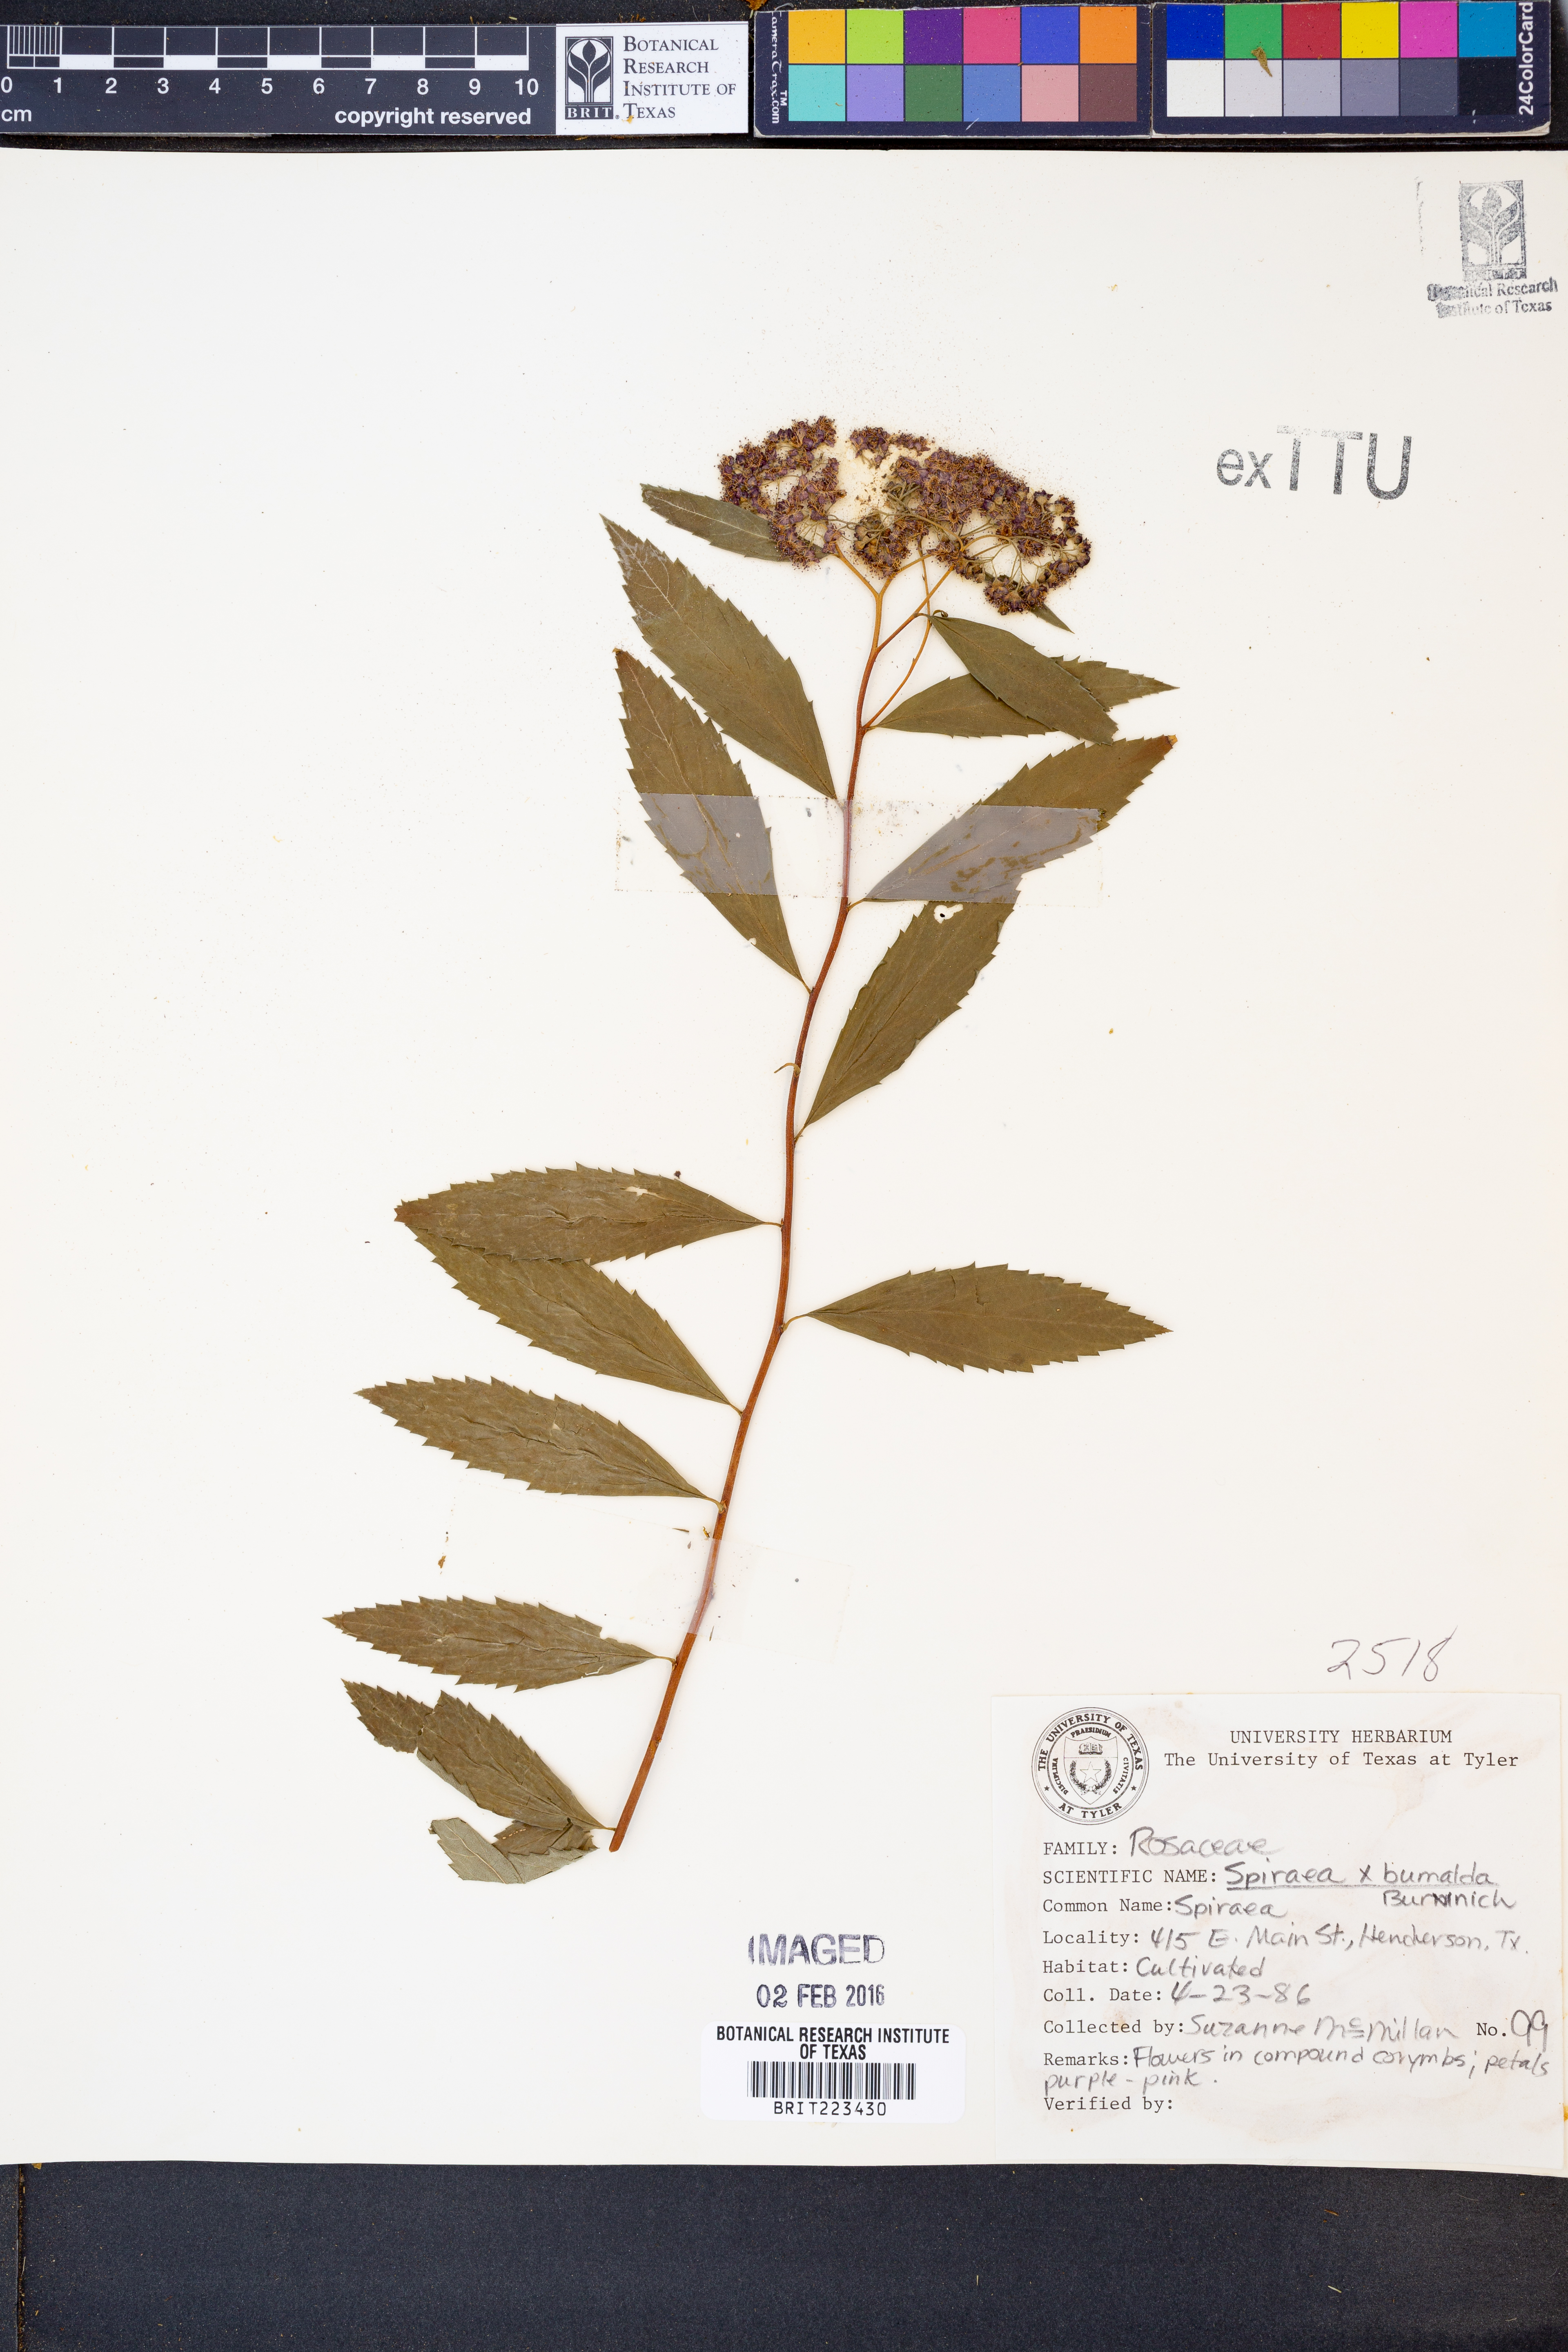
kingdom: Plantae
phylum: Tracheophyta
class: Magnoliopsida
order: Rosales
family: Rosaceae
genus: Spiraea
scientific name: Spiraea
